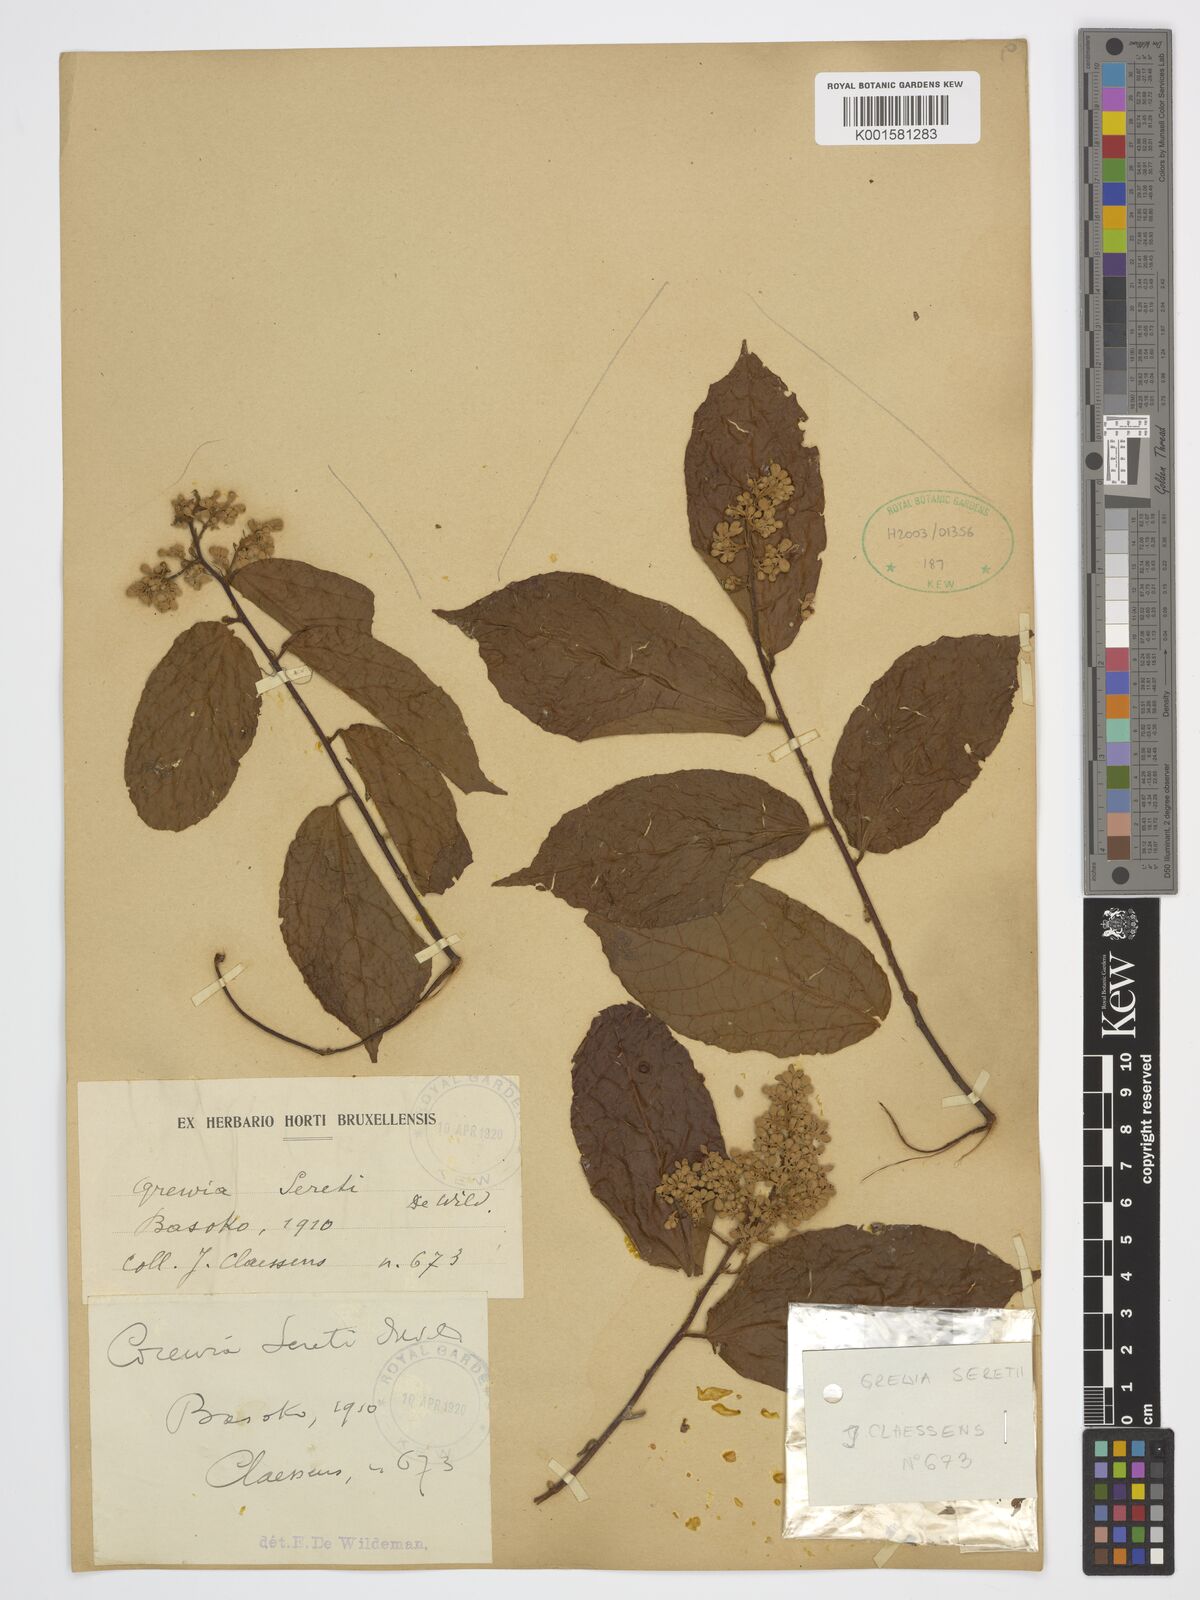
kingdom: Plantae
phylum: Tracheophyta
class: Magnoliopsida
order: Malvales
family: Malvaceae
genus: Microcos
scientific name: Microcos seretii
